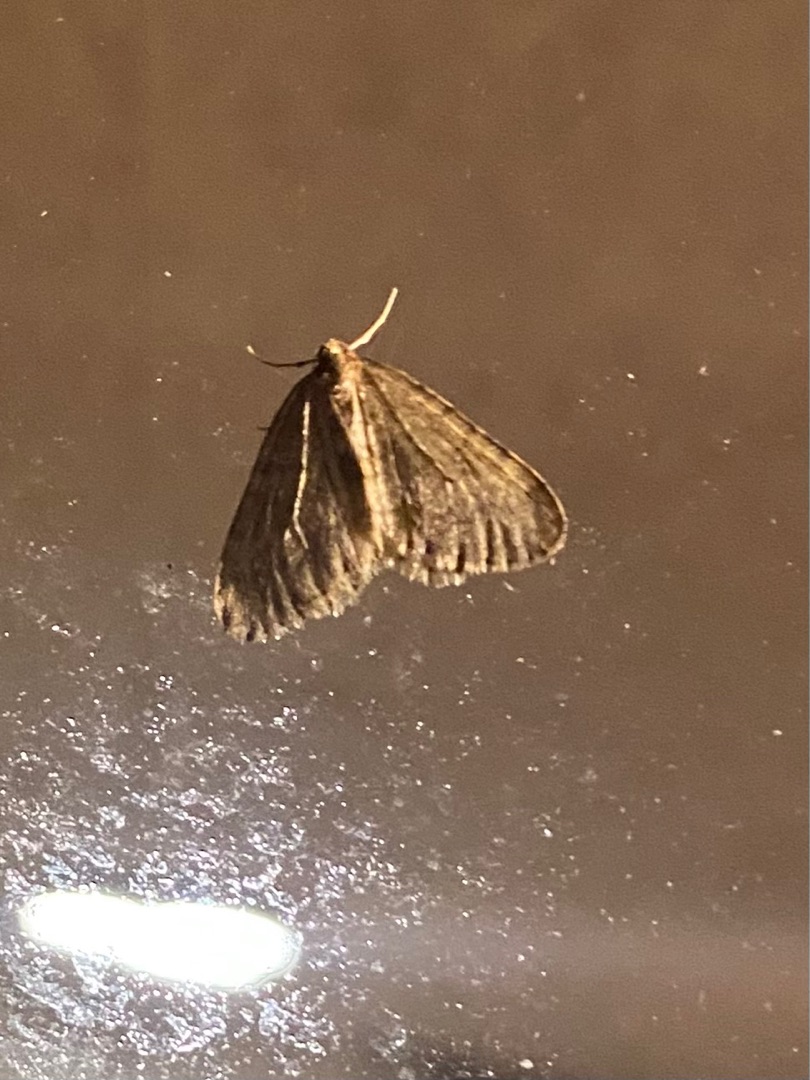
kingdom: Animalia
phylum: Arthropoda
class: Insecta
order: Lepidoptera
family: Geometridae
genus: Operophtera
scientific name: Operophtera brumata
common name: Lille frostmåler
